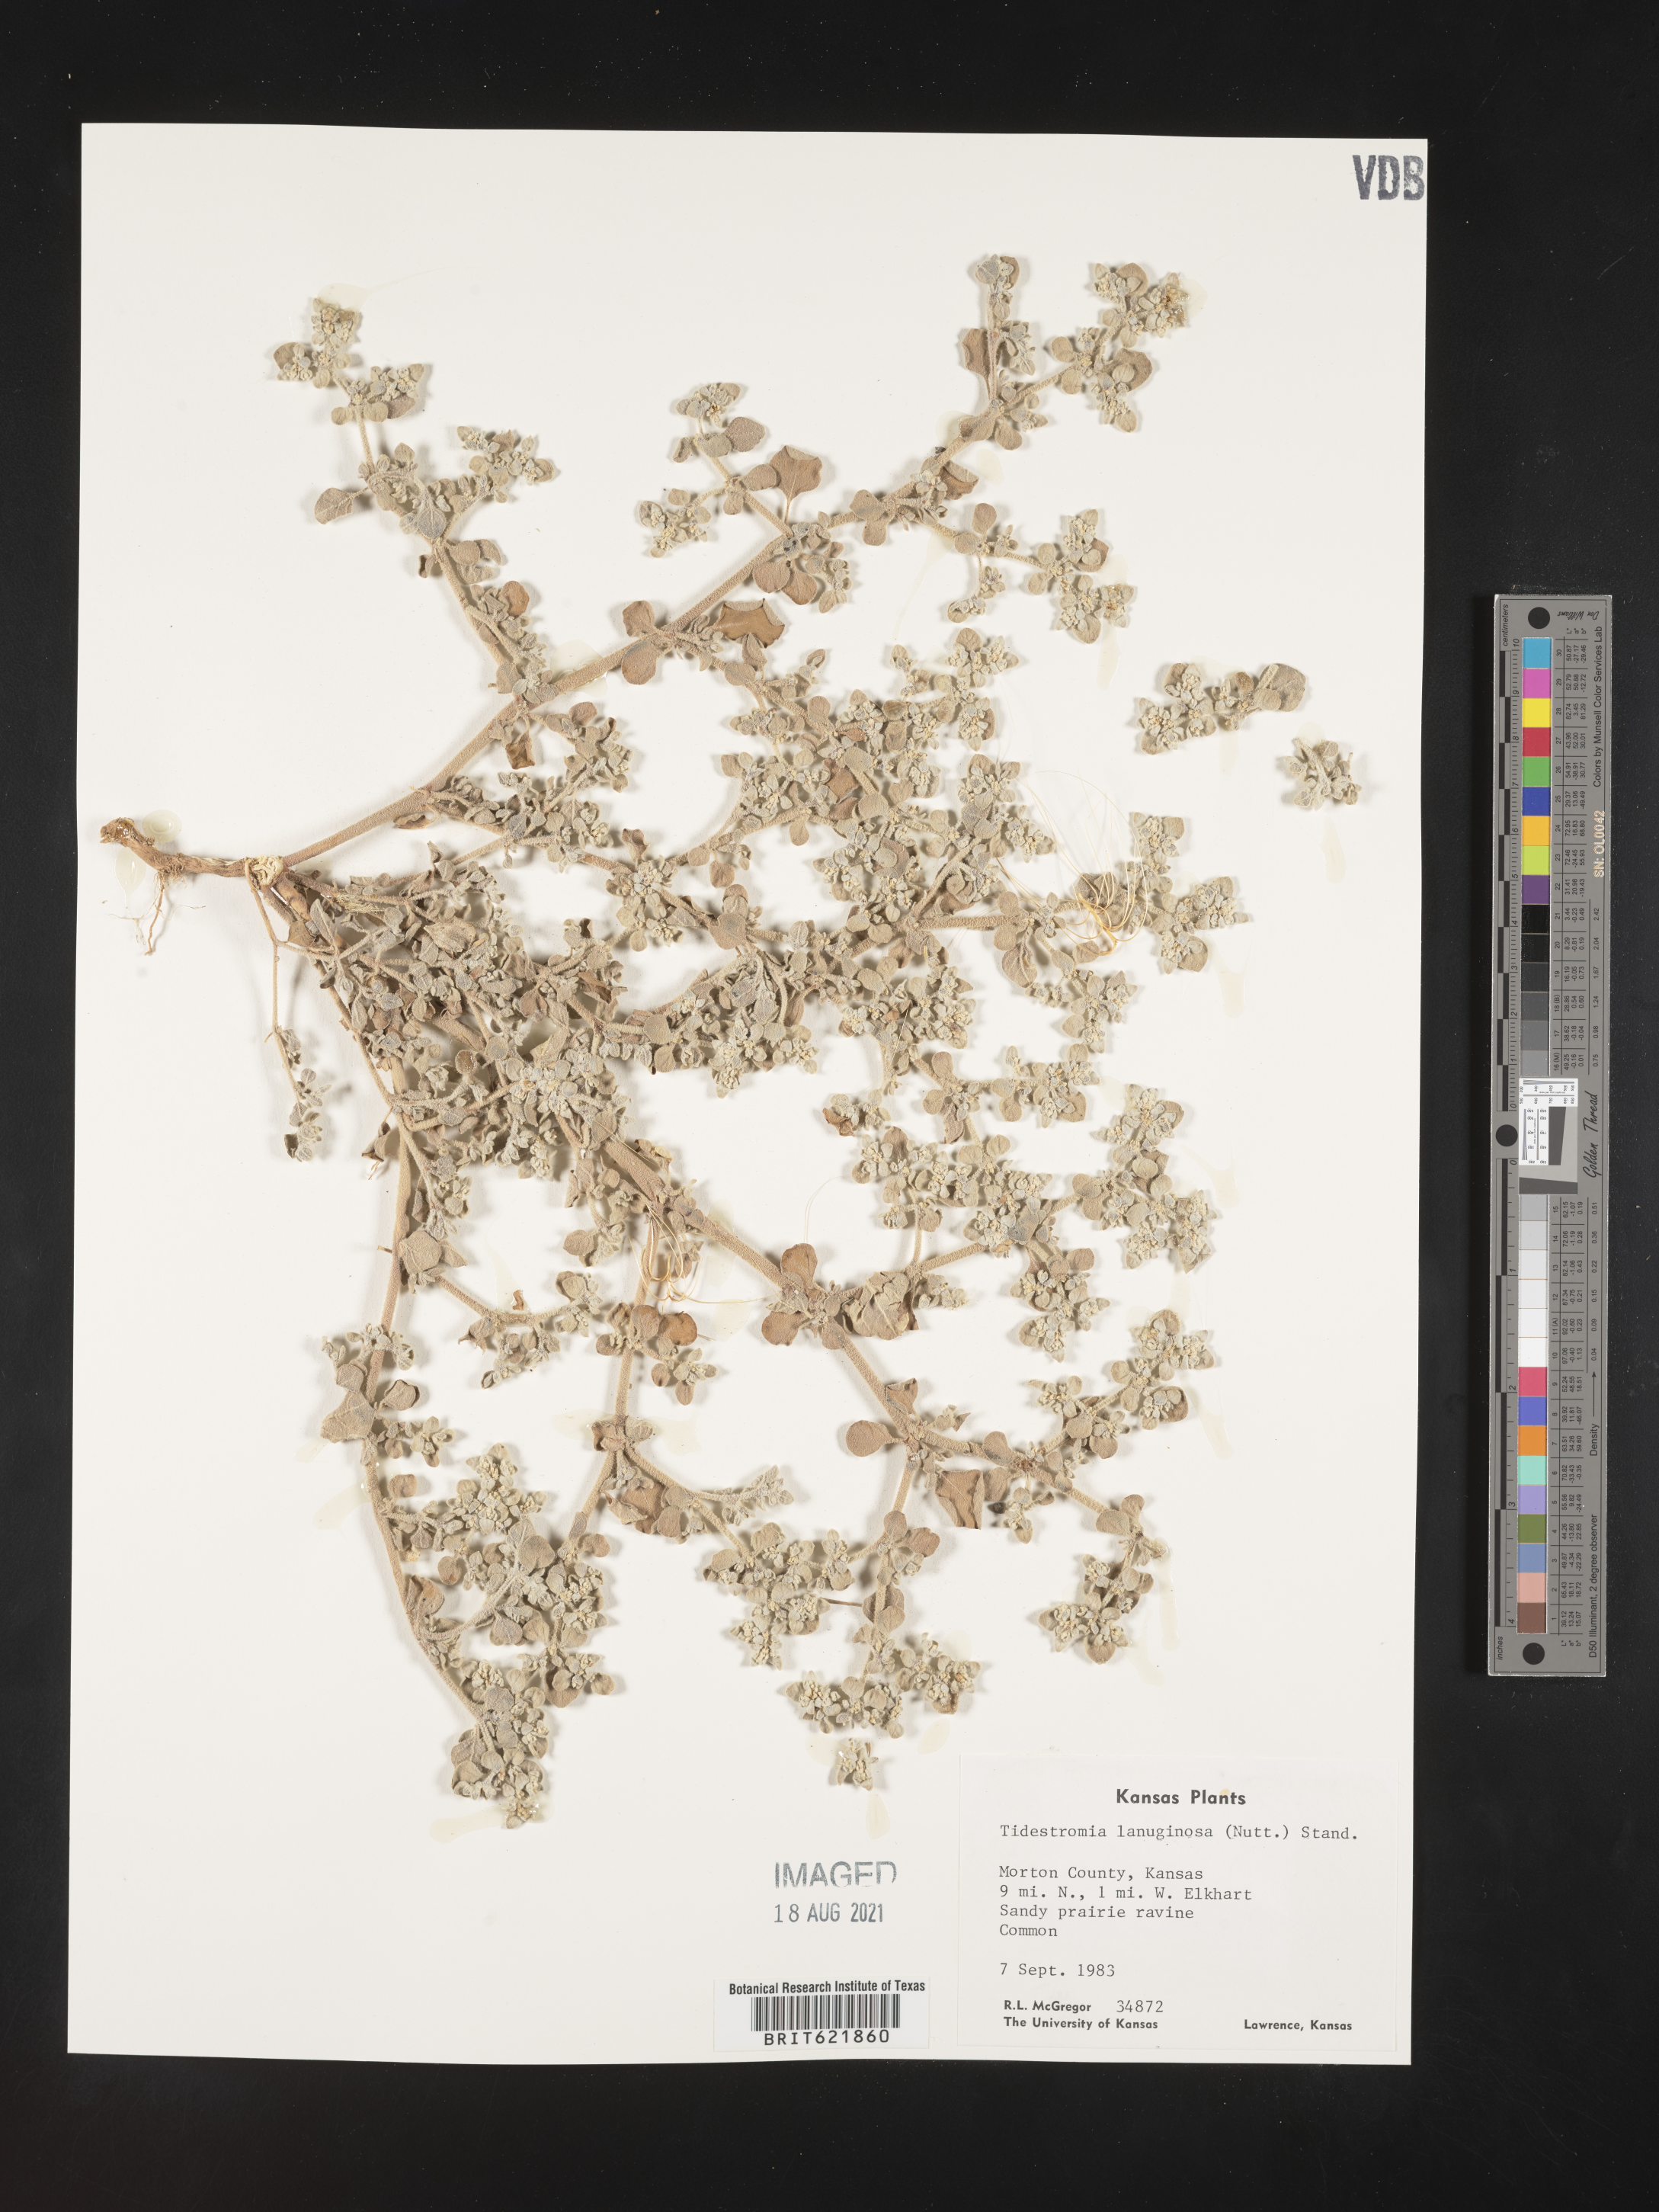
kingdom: Plantae
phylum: Tracheophyta
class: Magnoliopsida
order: Caryophyllales
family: Amaranthaceae
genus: Tidestromia
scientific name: Tidestromia lanuginosa
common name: Woolly tidestromia
